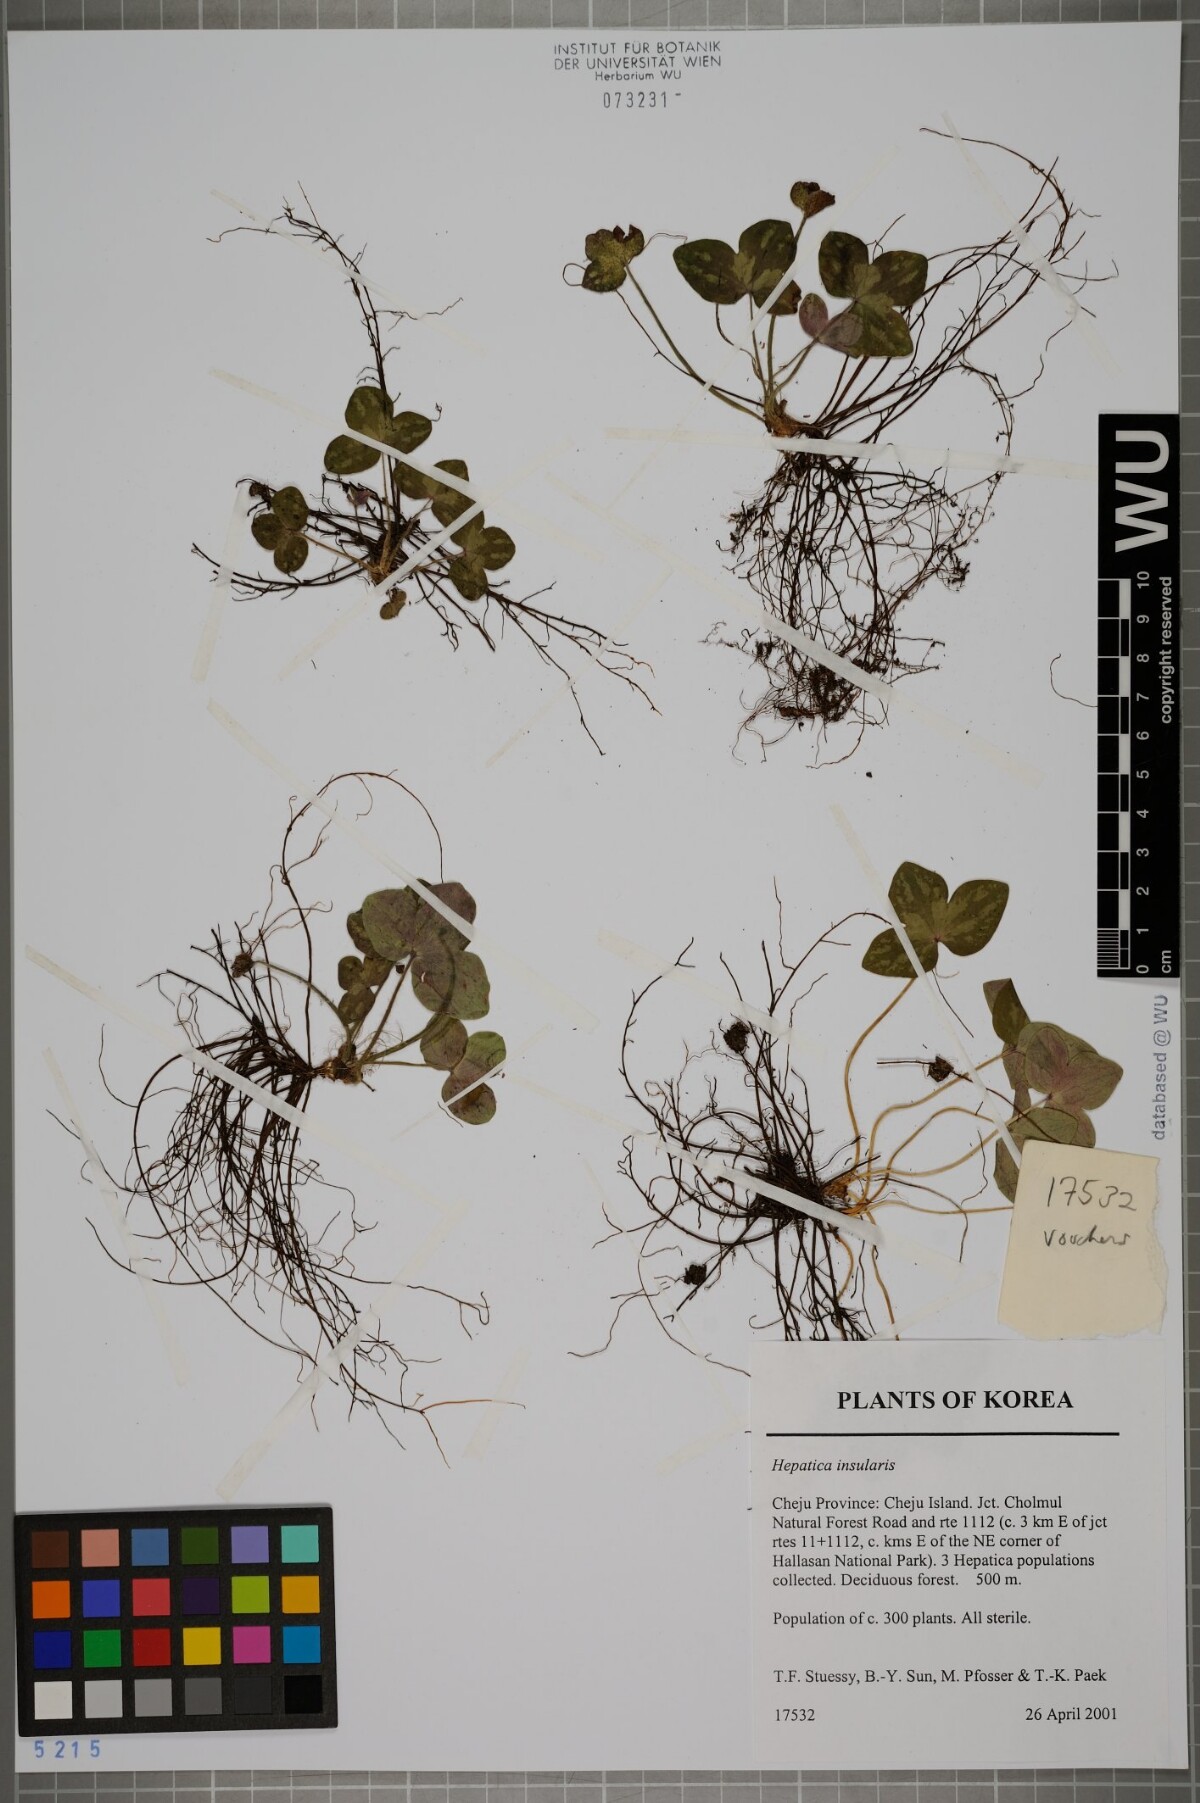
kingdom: Plantae
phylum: Tracheophyta
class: Magnoliopsida
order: Ranunculales
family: Ranunculaceae
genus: Hepatica
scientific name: Hepatica insularis
